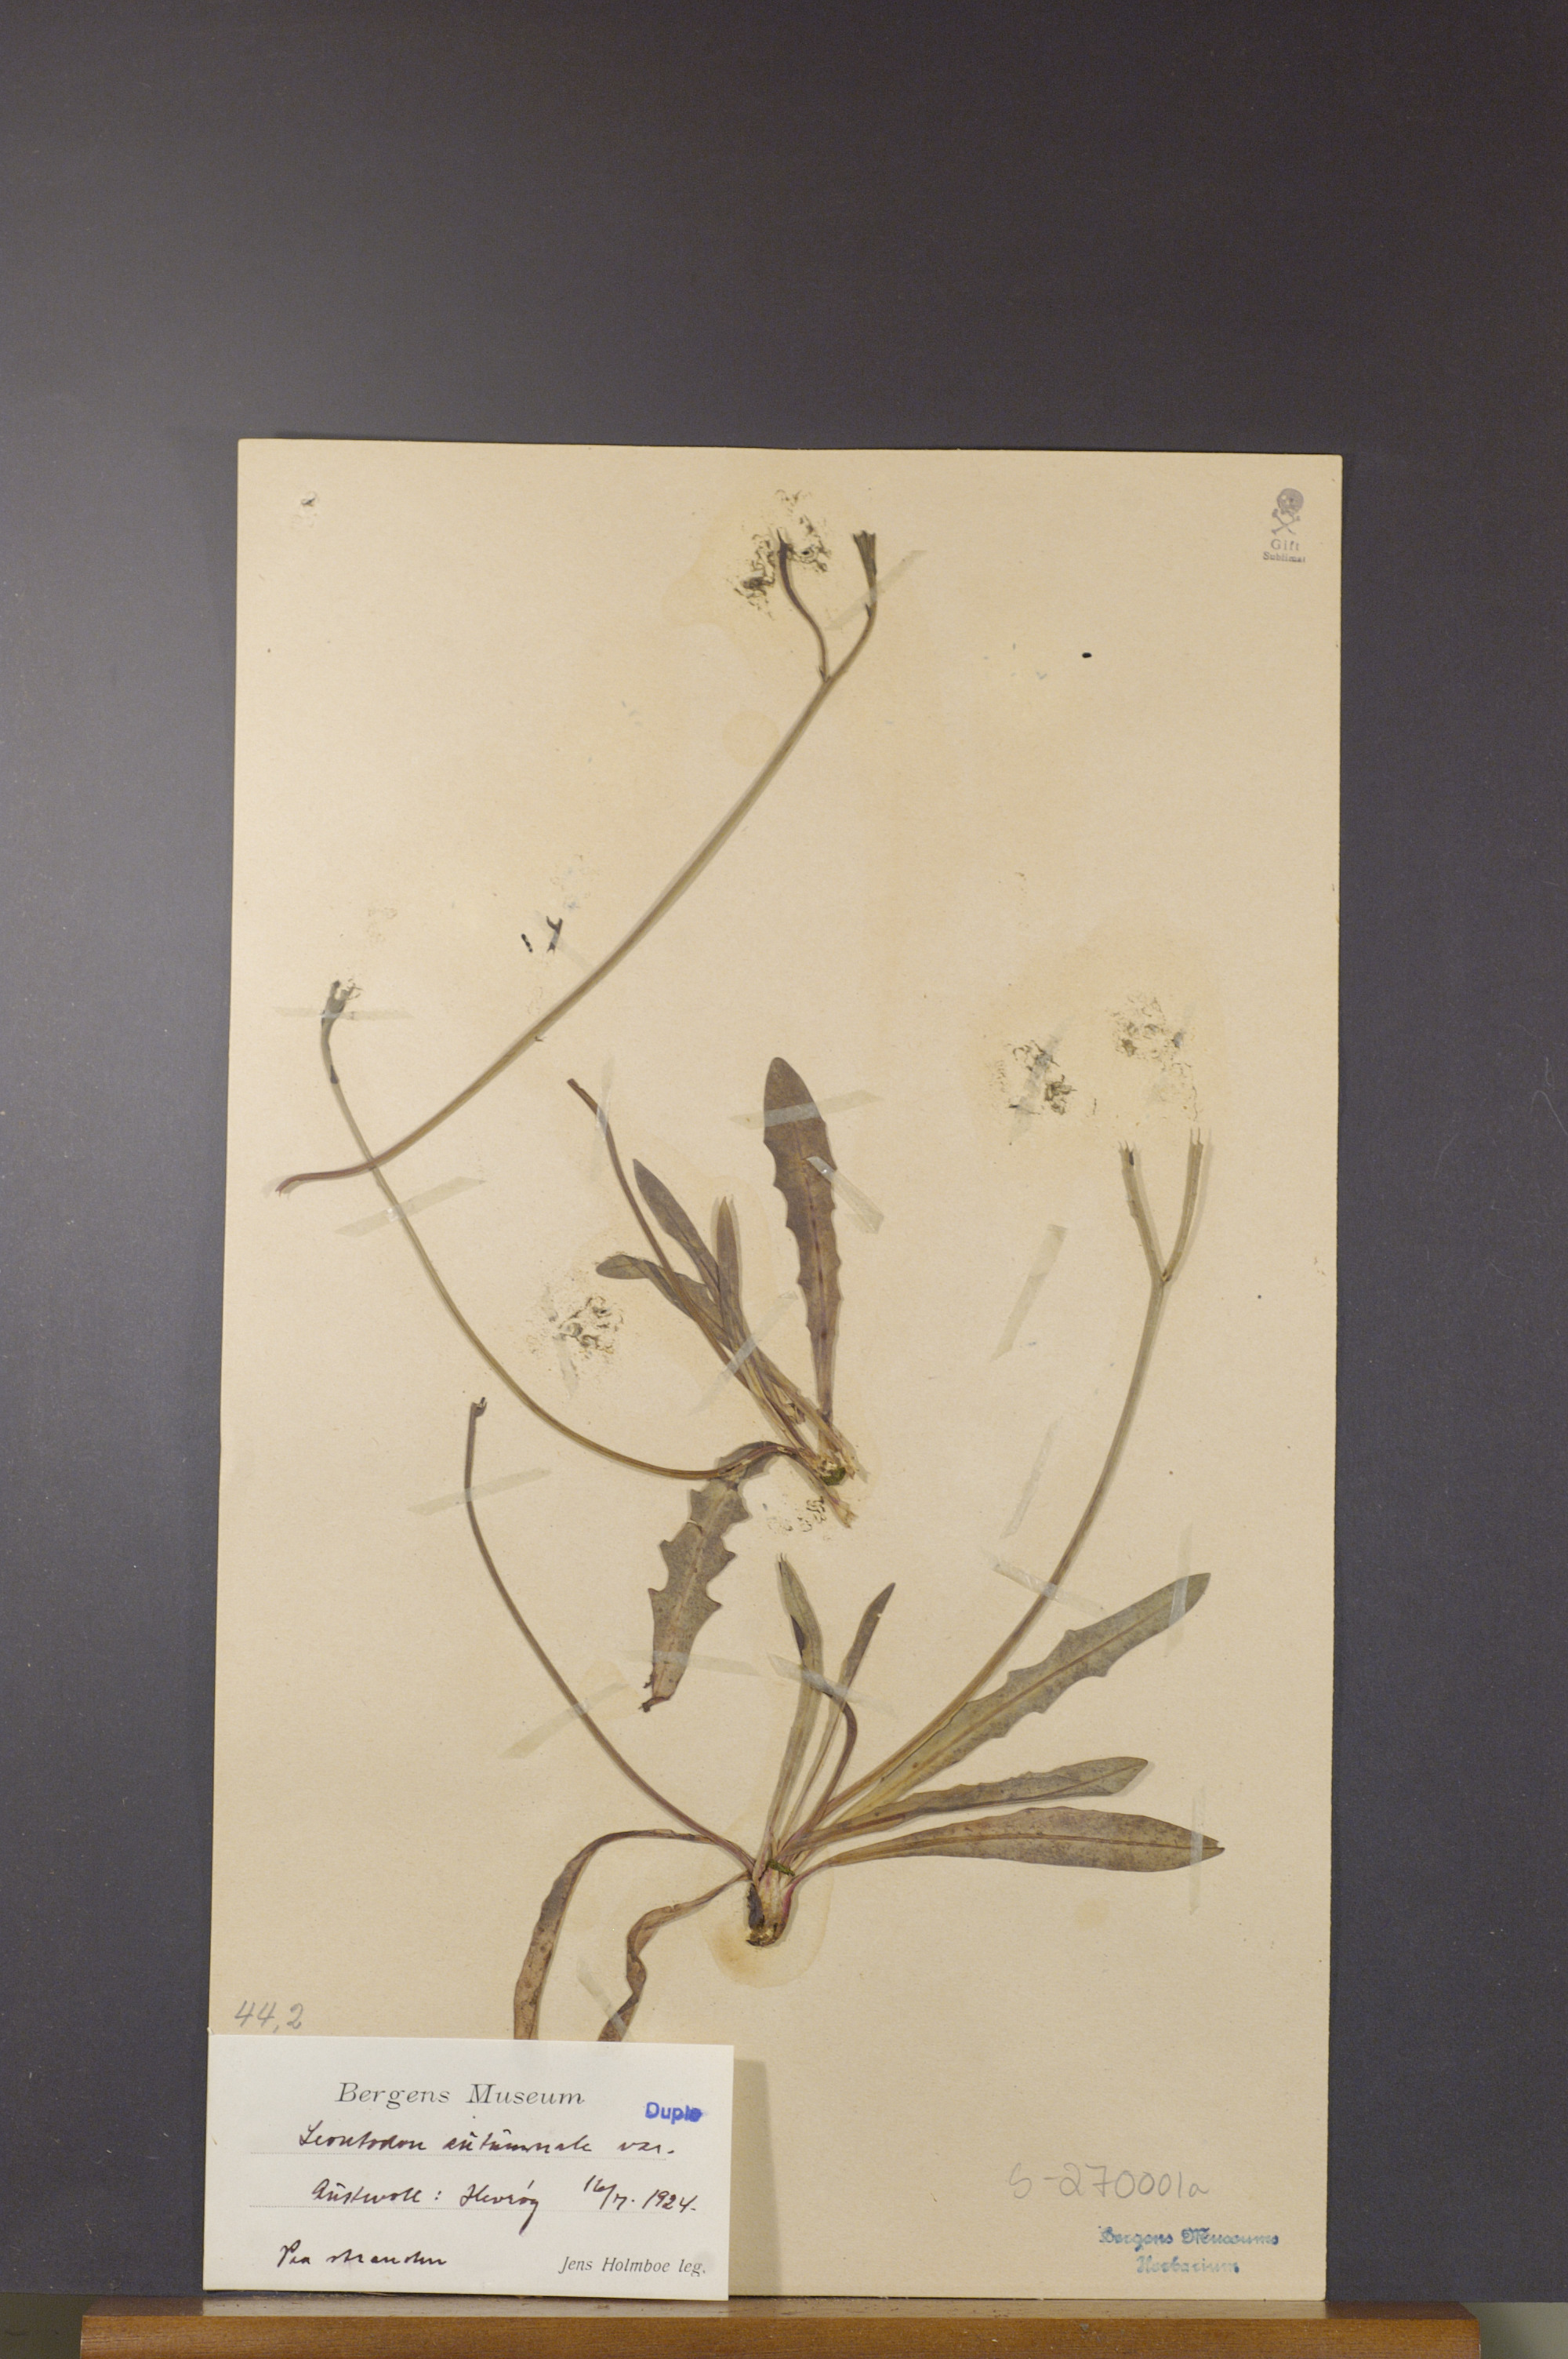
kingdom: Plantae
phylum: Tracheophyta
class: Magnoliopsida
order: Asterales
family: Asteraceae
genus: Scorzoneroides
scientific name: Scorzoneroides autumnalis
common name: Autumn hawkbit
